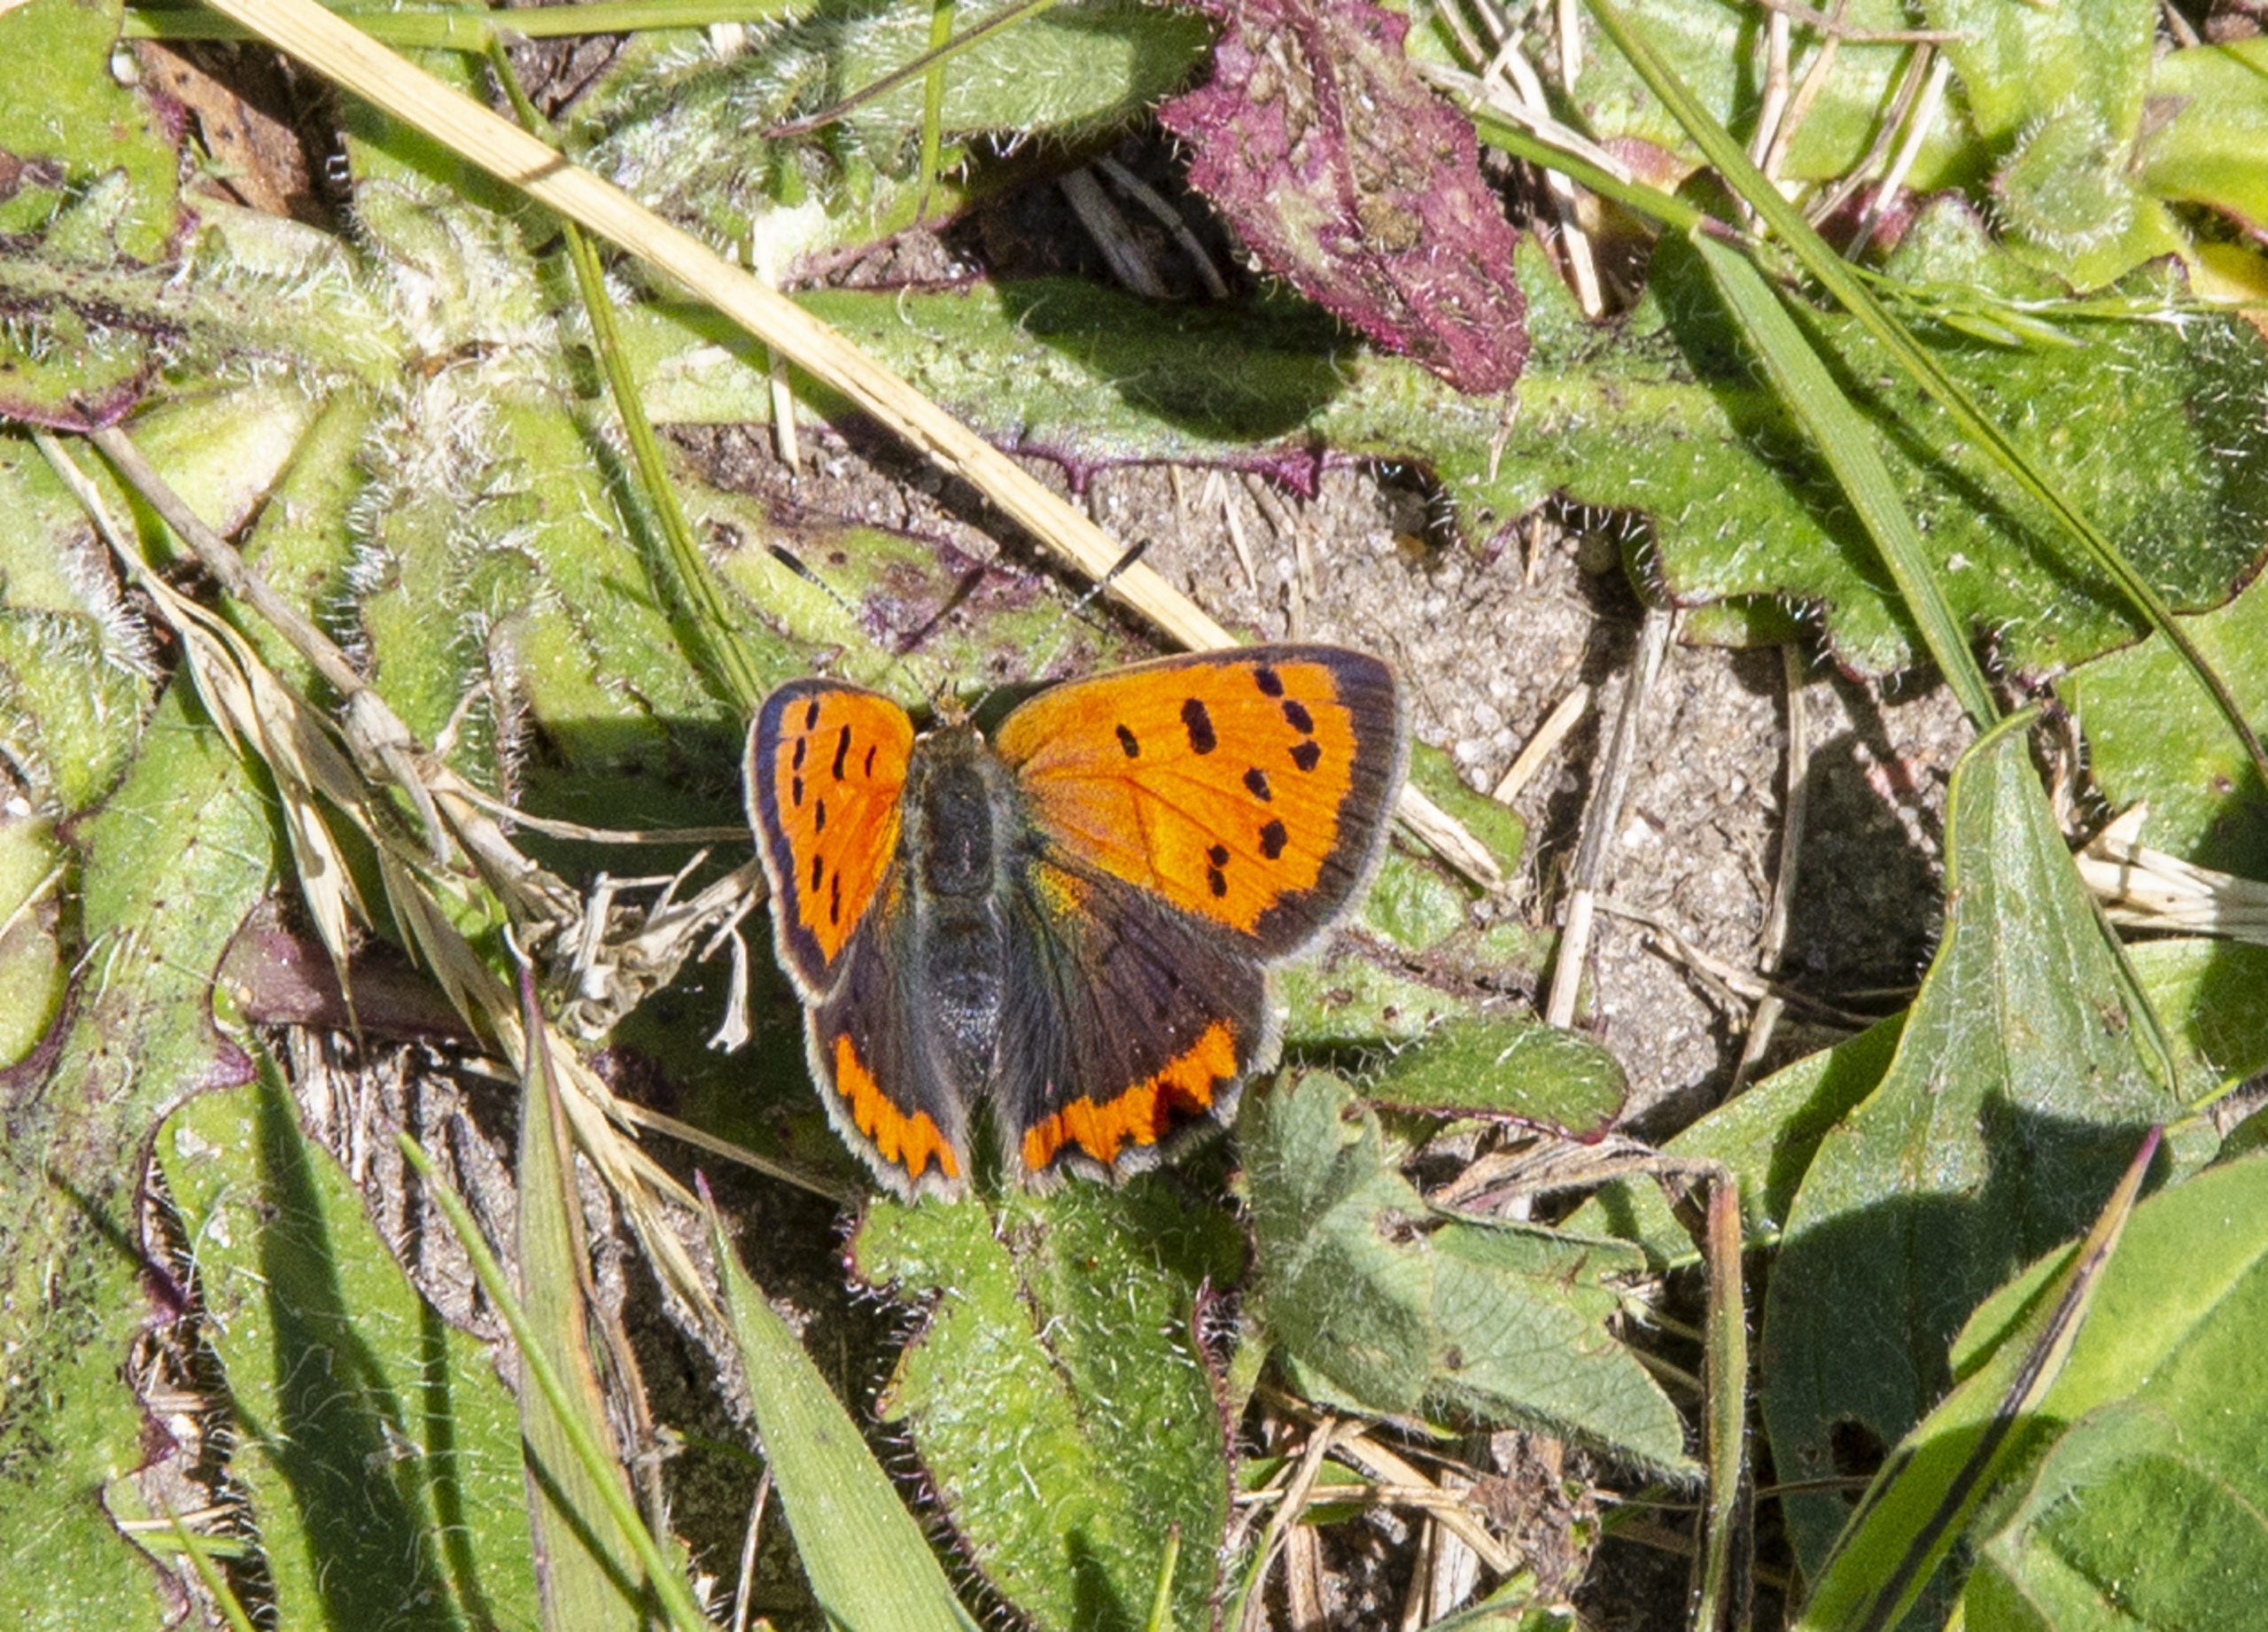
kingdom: Animalia
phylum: Arthropoda
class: Insecta
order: Lepidoptera
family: Lycaenidae
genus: Lycaena
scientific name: Lycaena phlaeas
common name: Lille ildfugl
